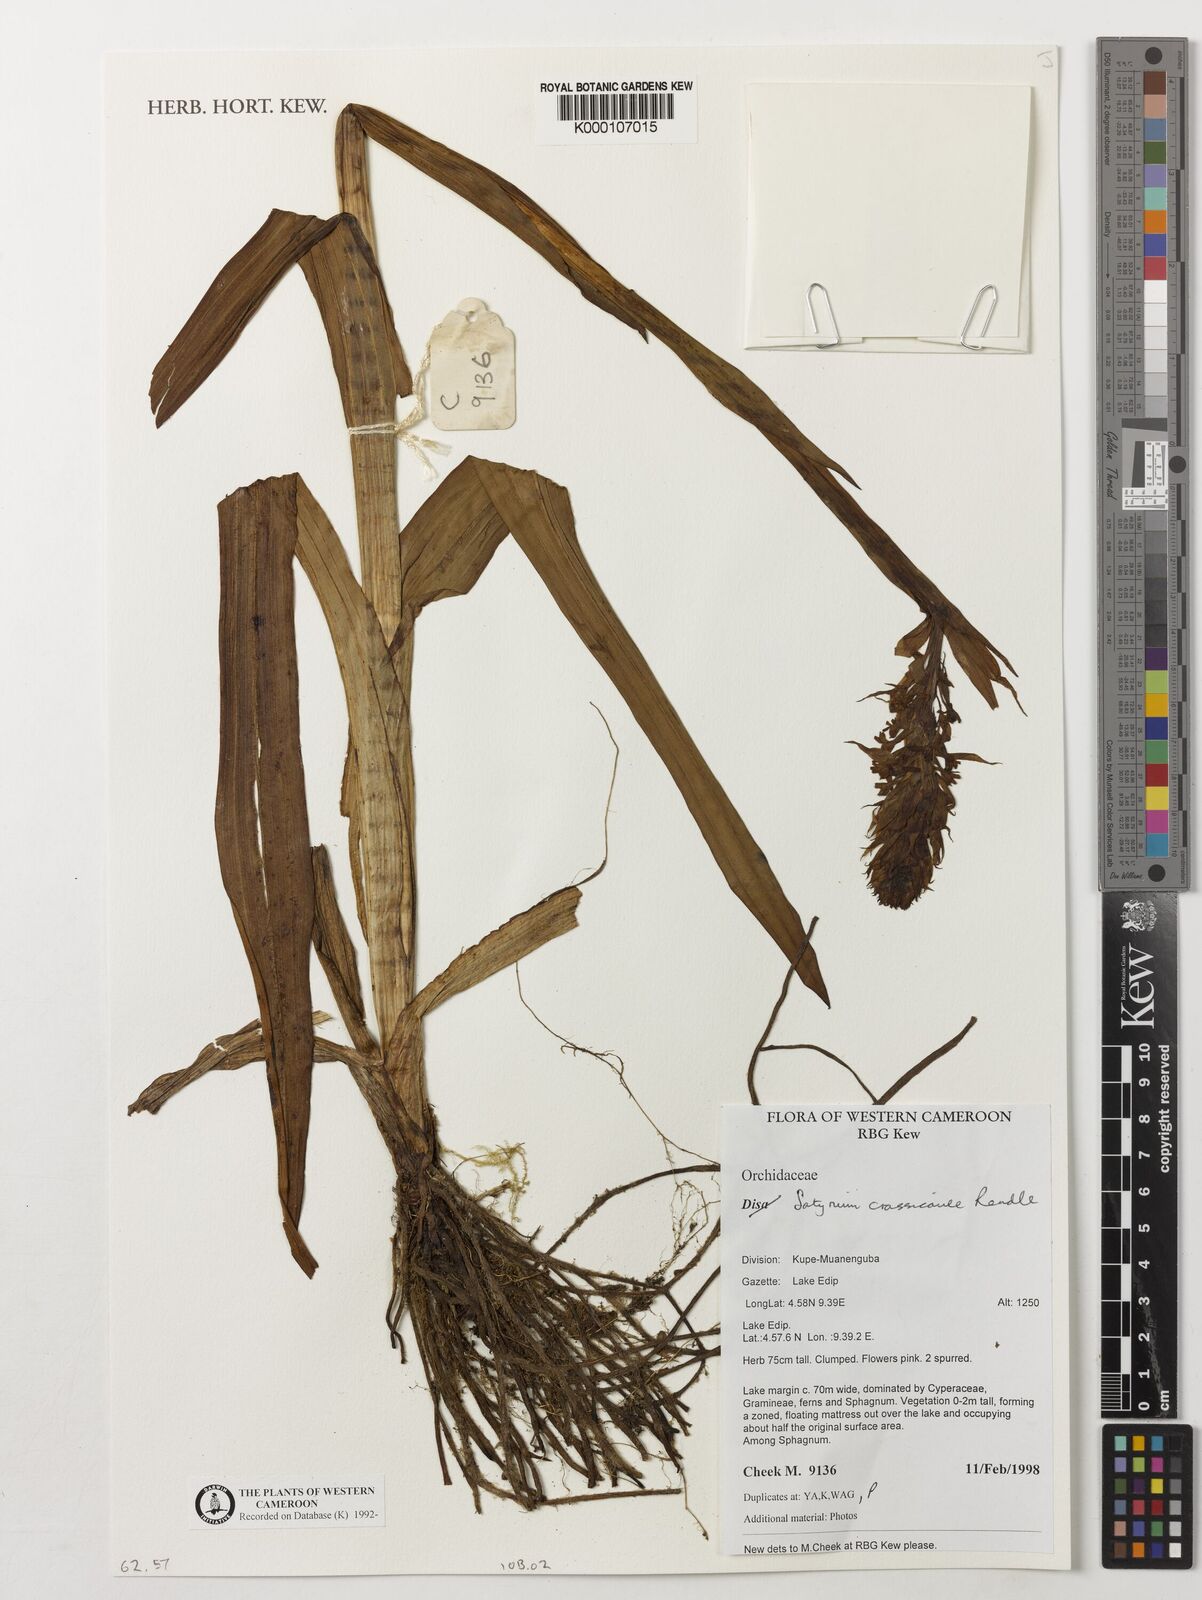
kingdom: Plantae
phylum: Tracheophyta
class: Liliopsida
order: Asparagales
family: Orchidaceae
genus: Satyrium
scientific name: Satyrium crassicaule
